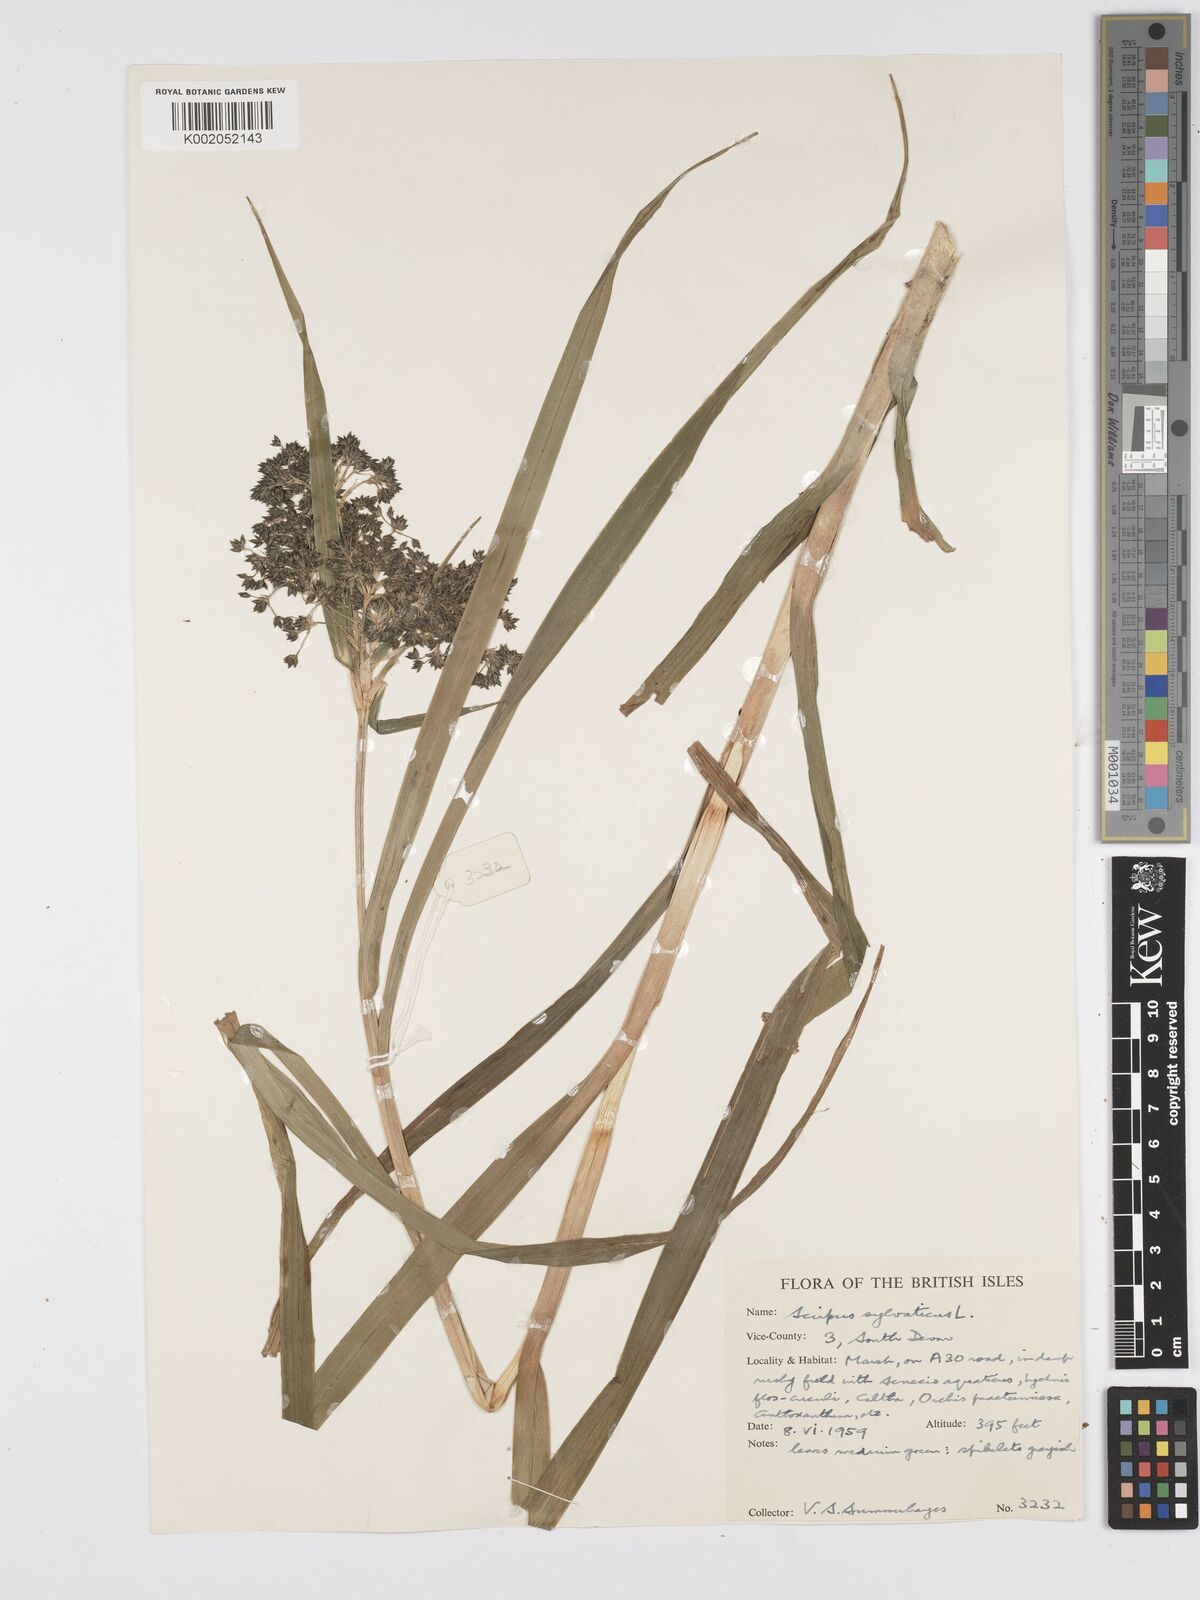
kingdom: Plantae
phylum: Tracheophyta
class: Liliopsida
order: Poales
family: Cyperaceae
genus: Scirpus
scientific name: Scirpus sylvaticus
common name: Wood club-rush
